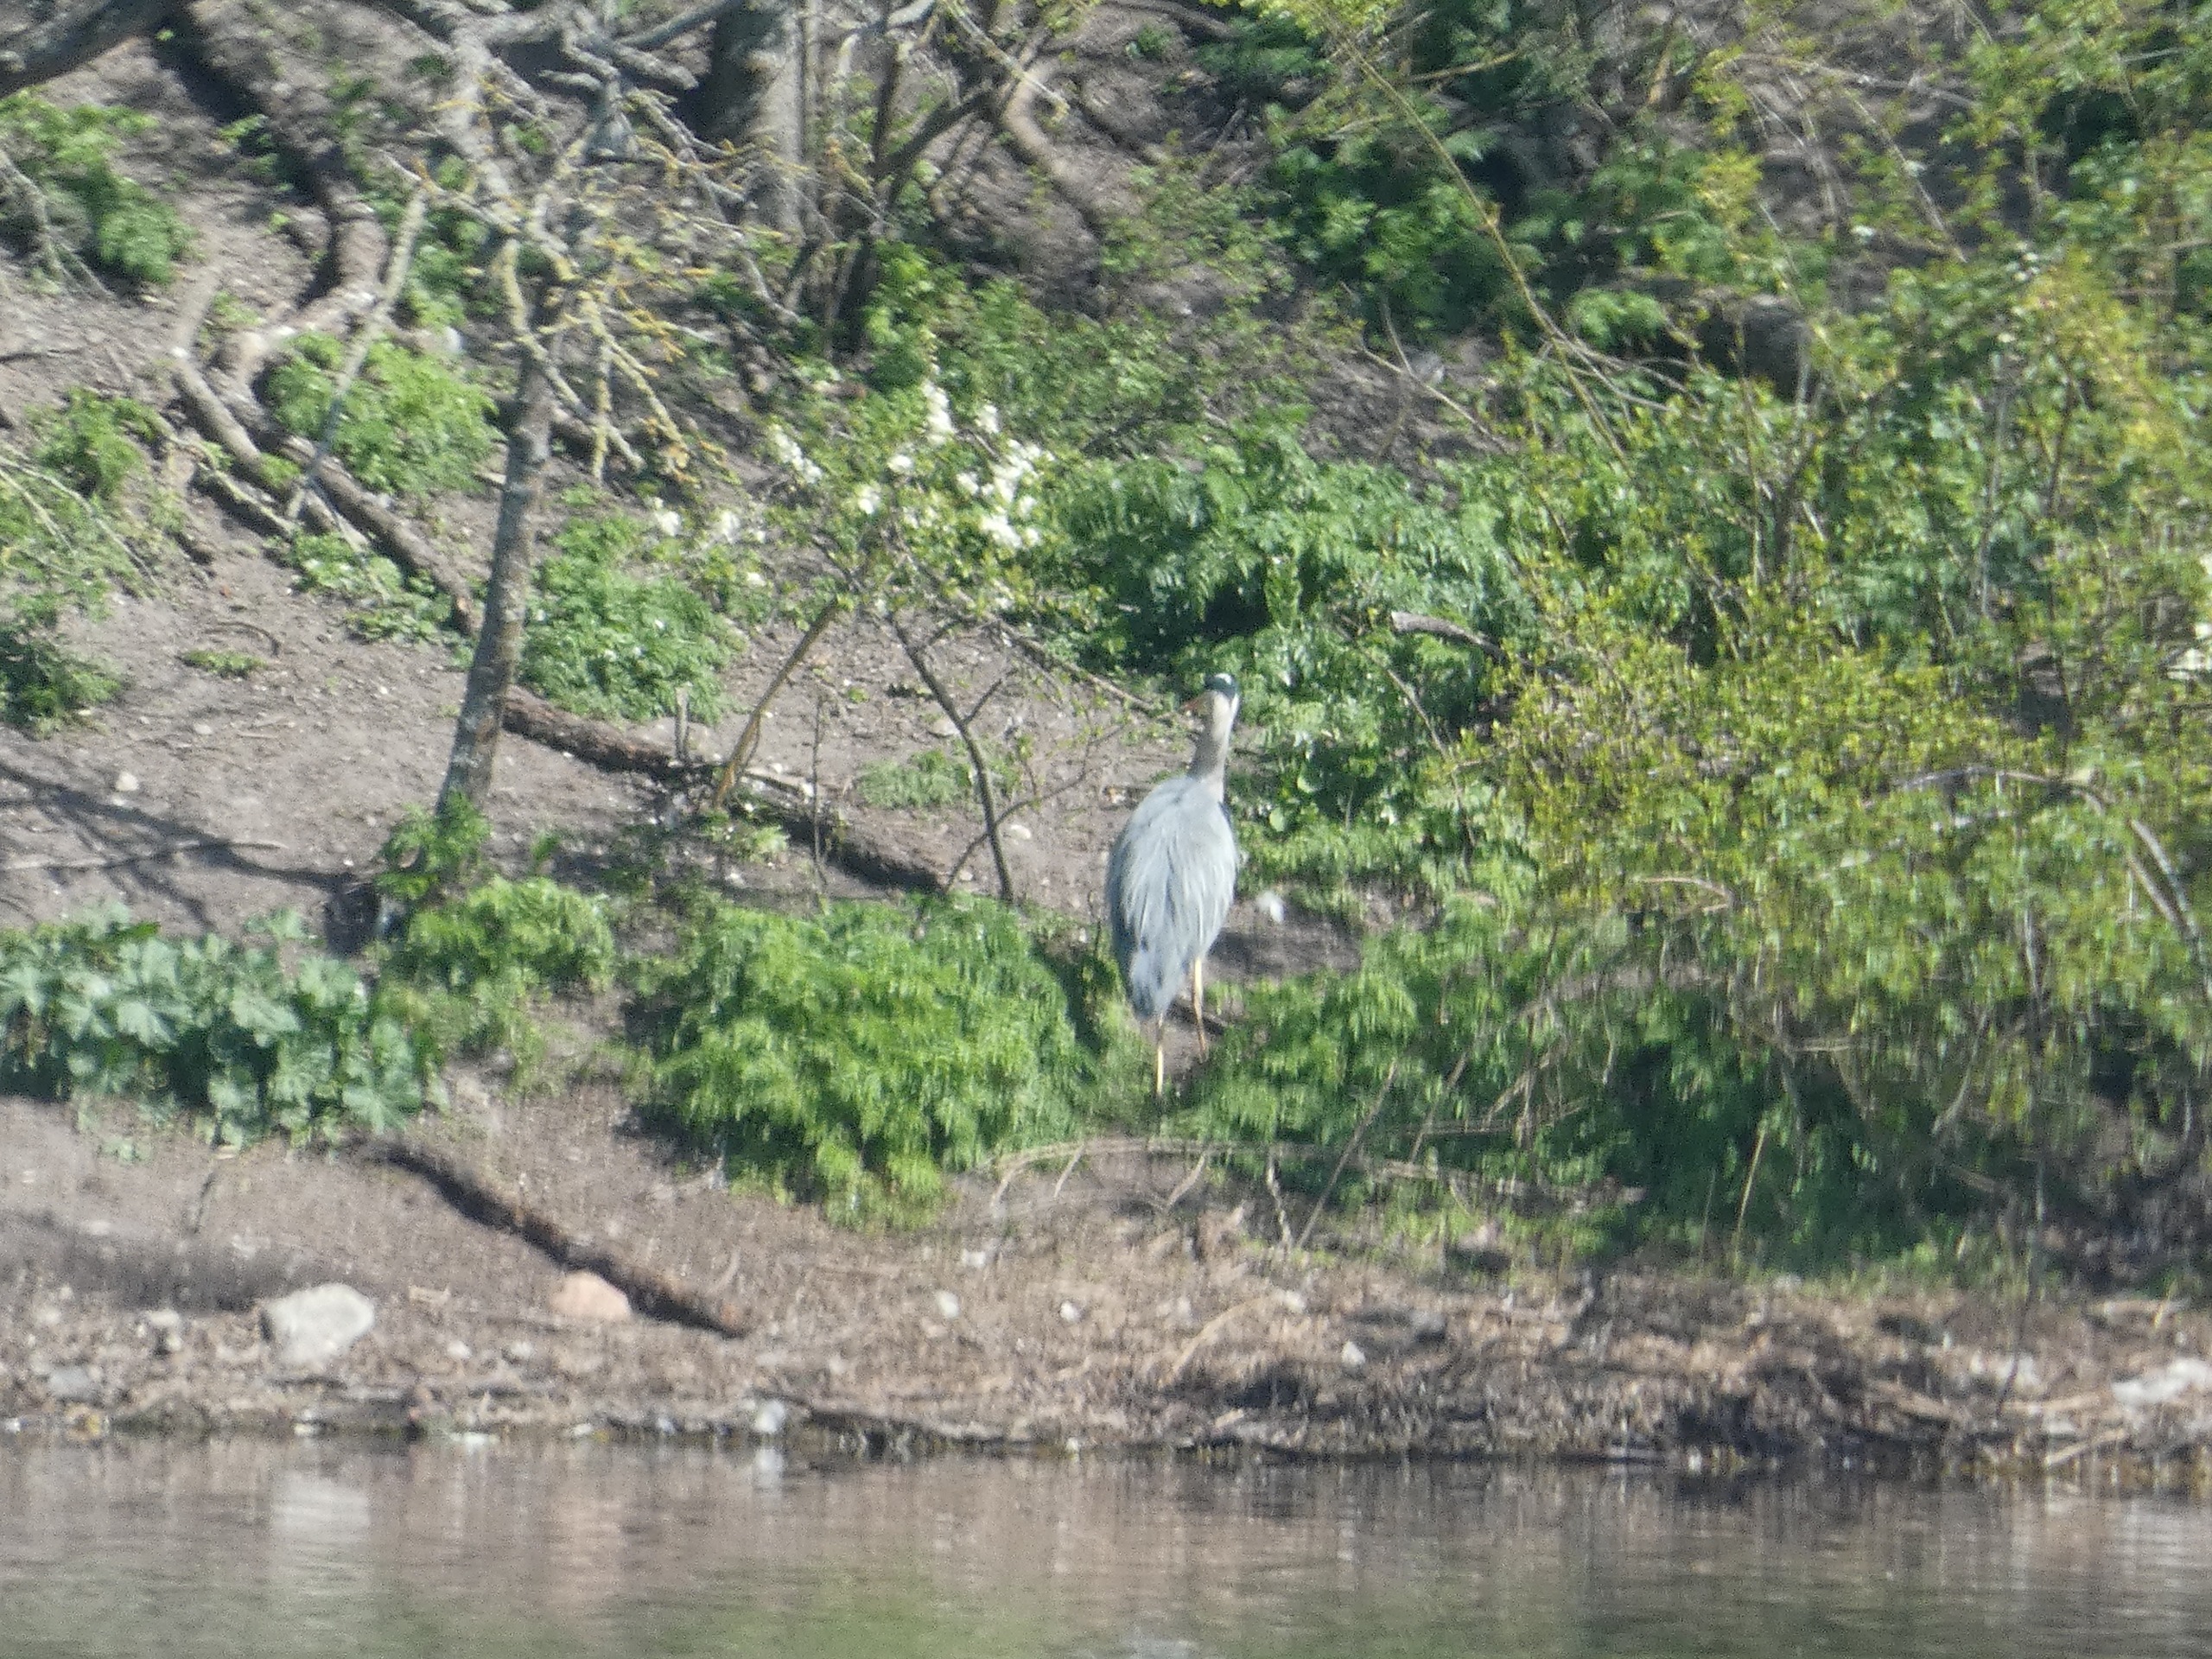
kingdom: Animalia
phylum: Chordata
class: Aves
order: Pelecaniformes
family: Ardeidae
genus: Ardea
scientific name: Ardea cinerea
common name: Fiskehejre
